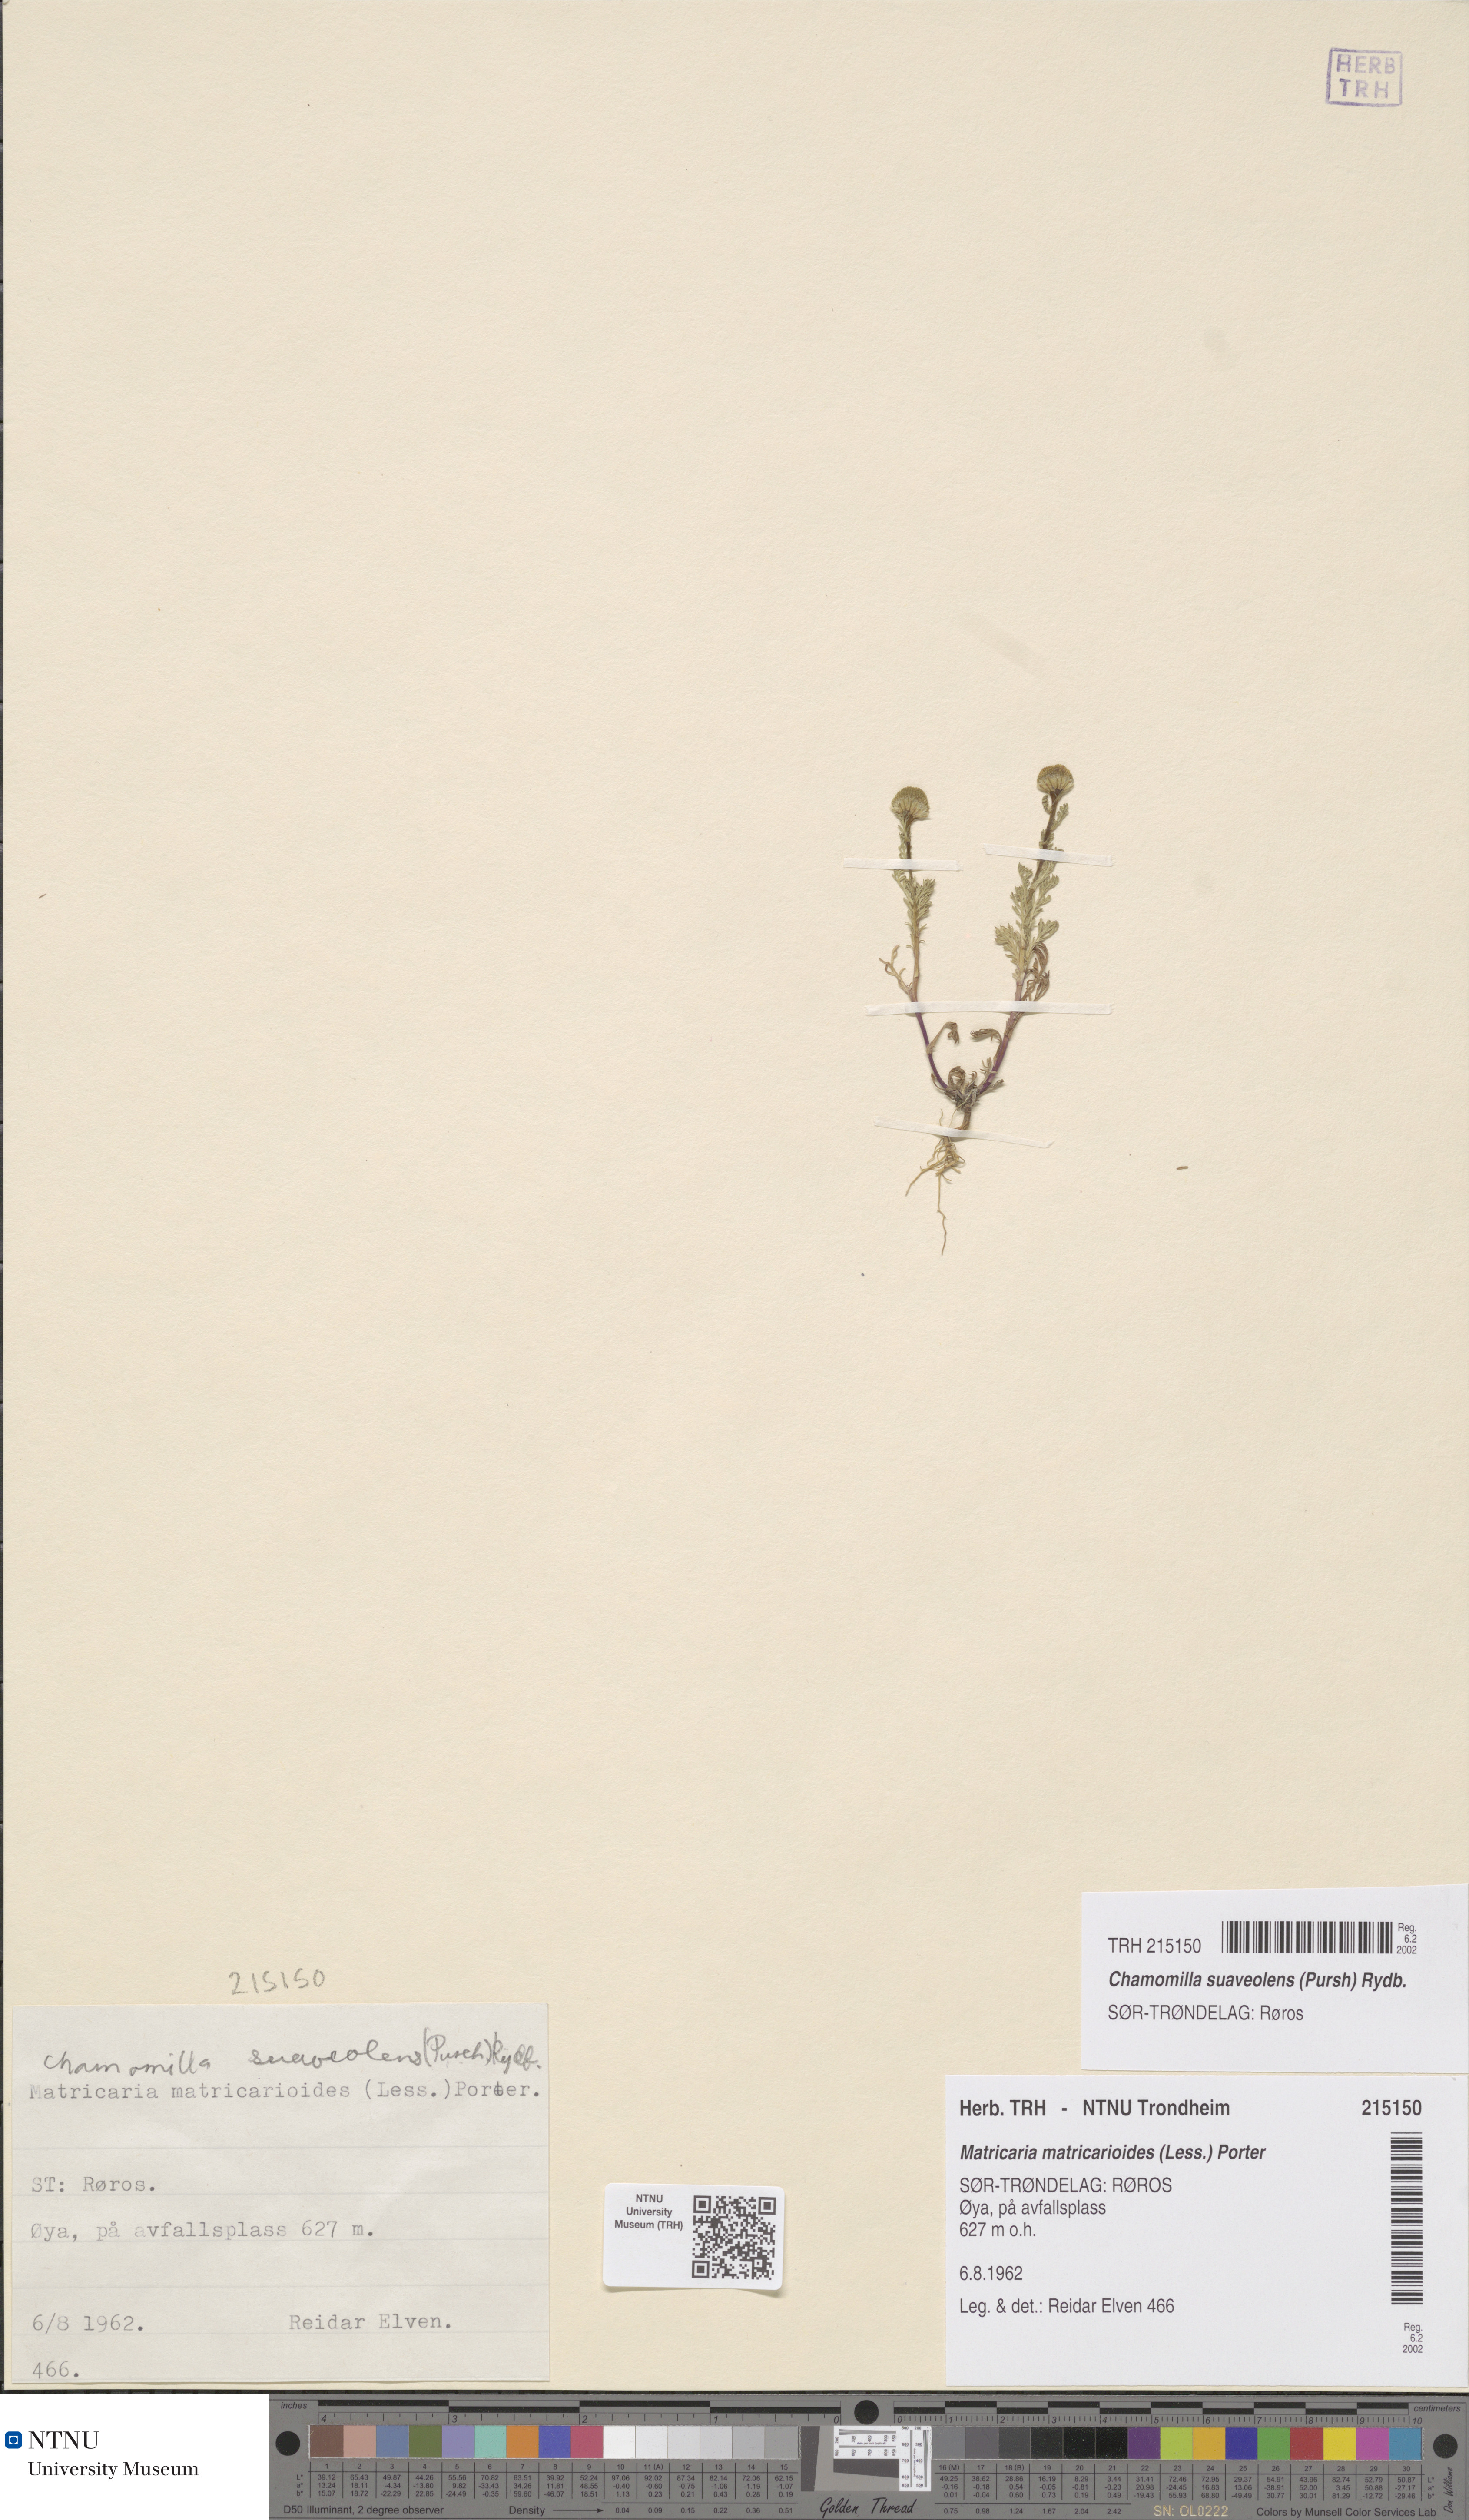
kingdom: Plantae
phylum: Tracheophyta
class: Magnoliopsida
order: Asterales
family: Asteraceae
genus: Matricaria
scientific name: Matricaria discoidea
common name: Disc mayweed
